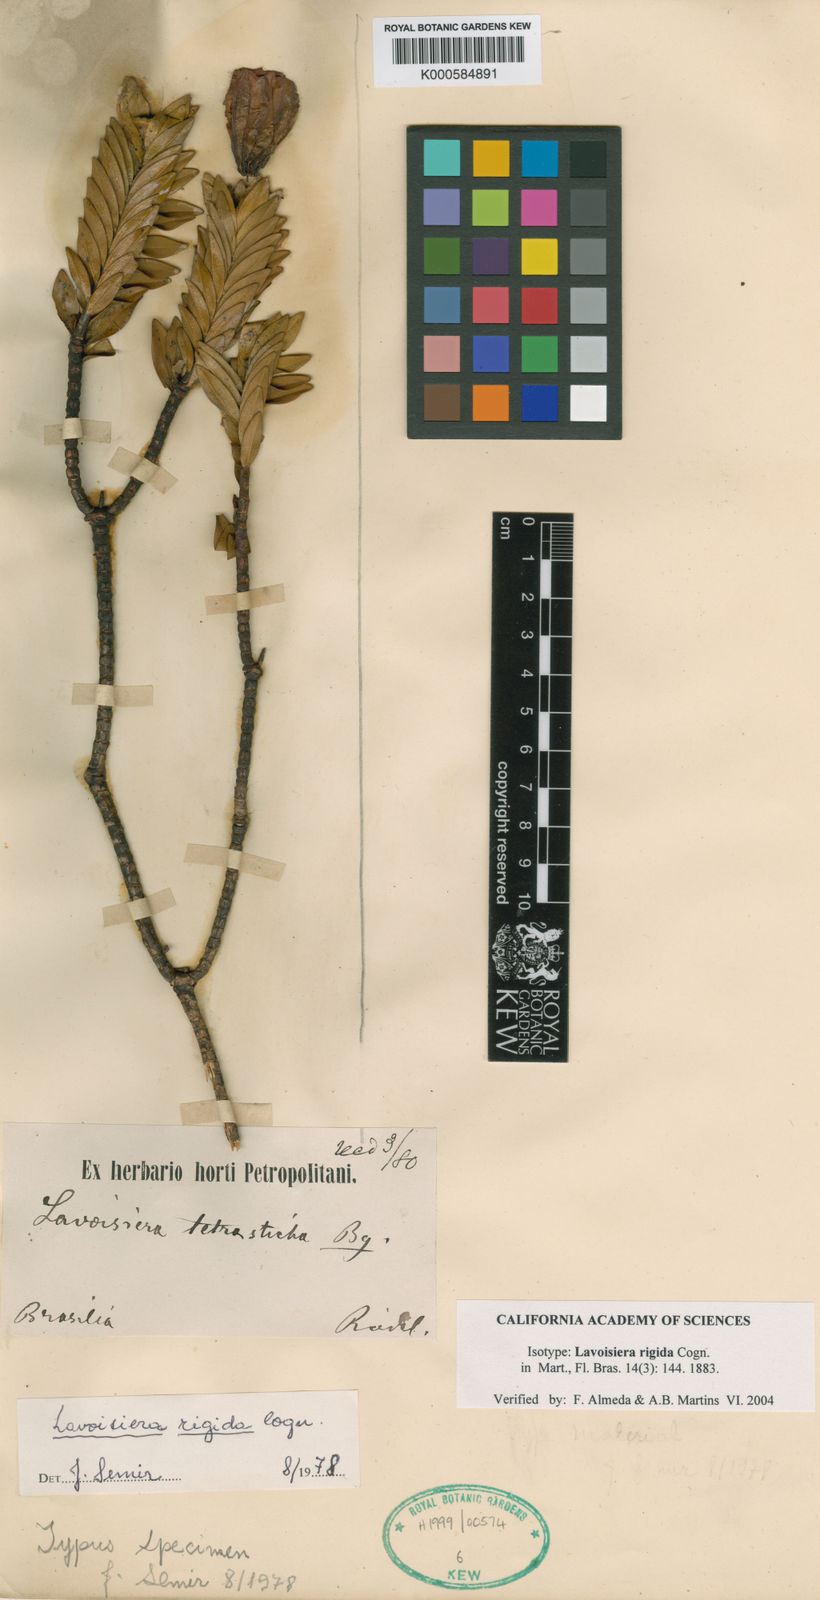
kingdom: Plantae
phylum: Tracheophyta
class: Magnoliopsida
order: Myrtales
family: Melastomataceae
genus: Microlicia
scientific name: Microlicia rigida
